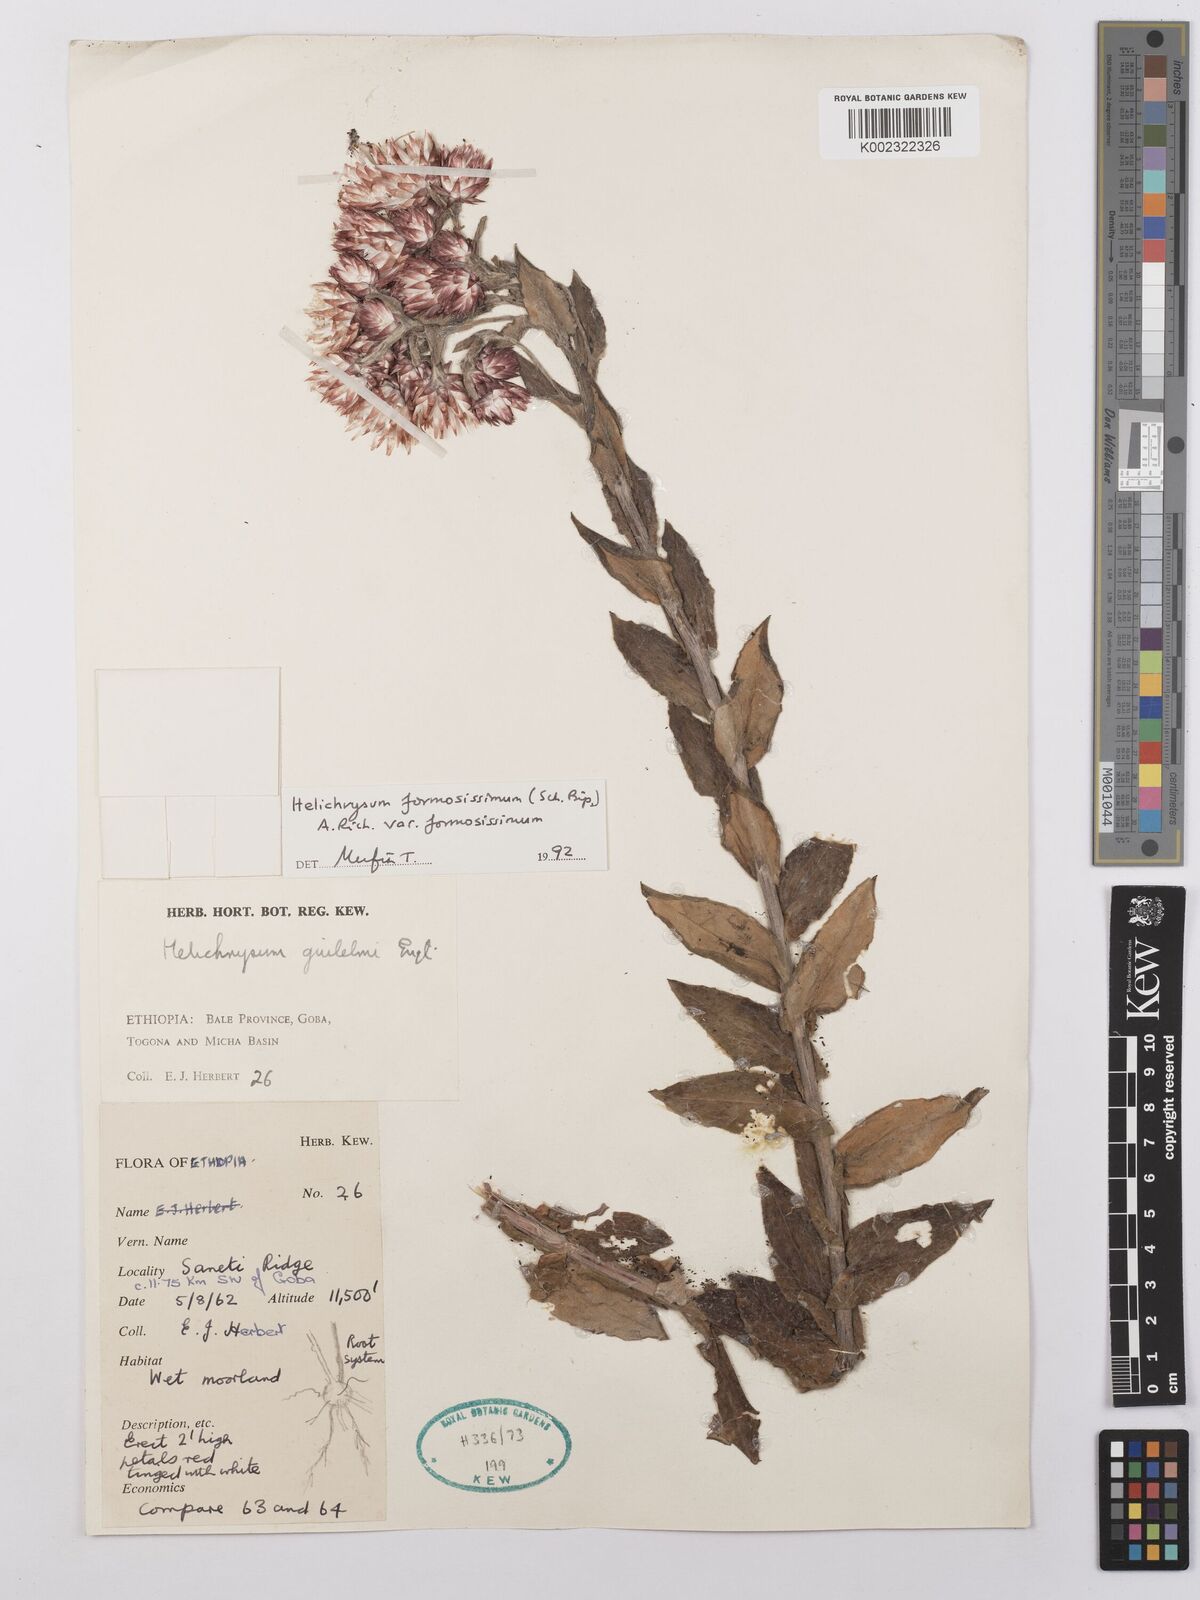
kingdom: Plantae
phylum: Tracheophyta
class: Magnoliopsida
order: Asterales
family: Asteraceae
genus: Helichrysum
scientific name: Helichrysum formosissimum
